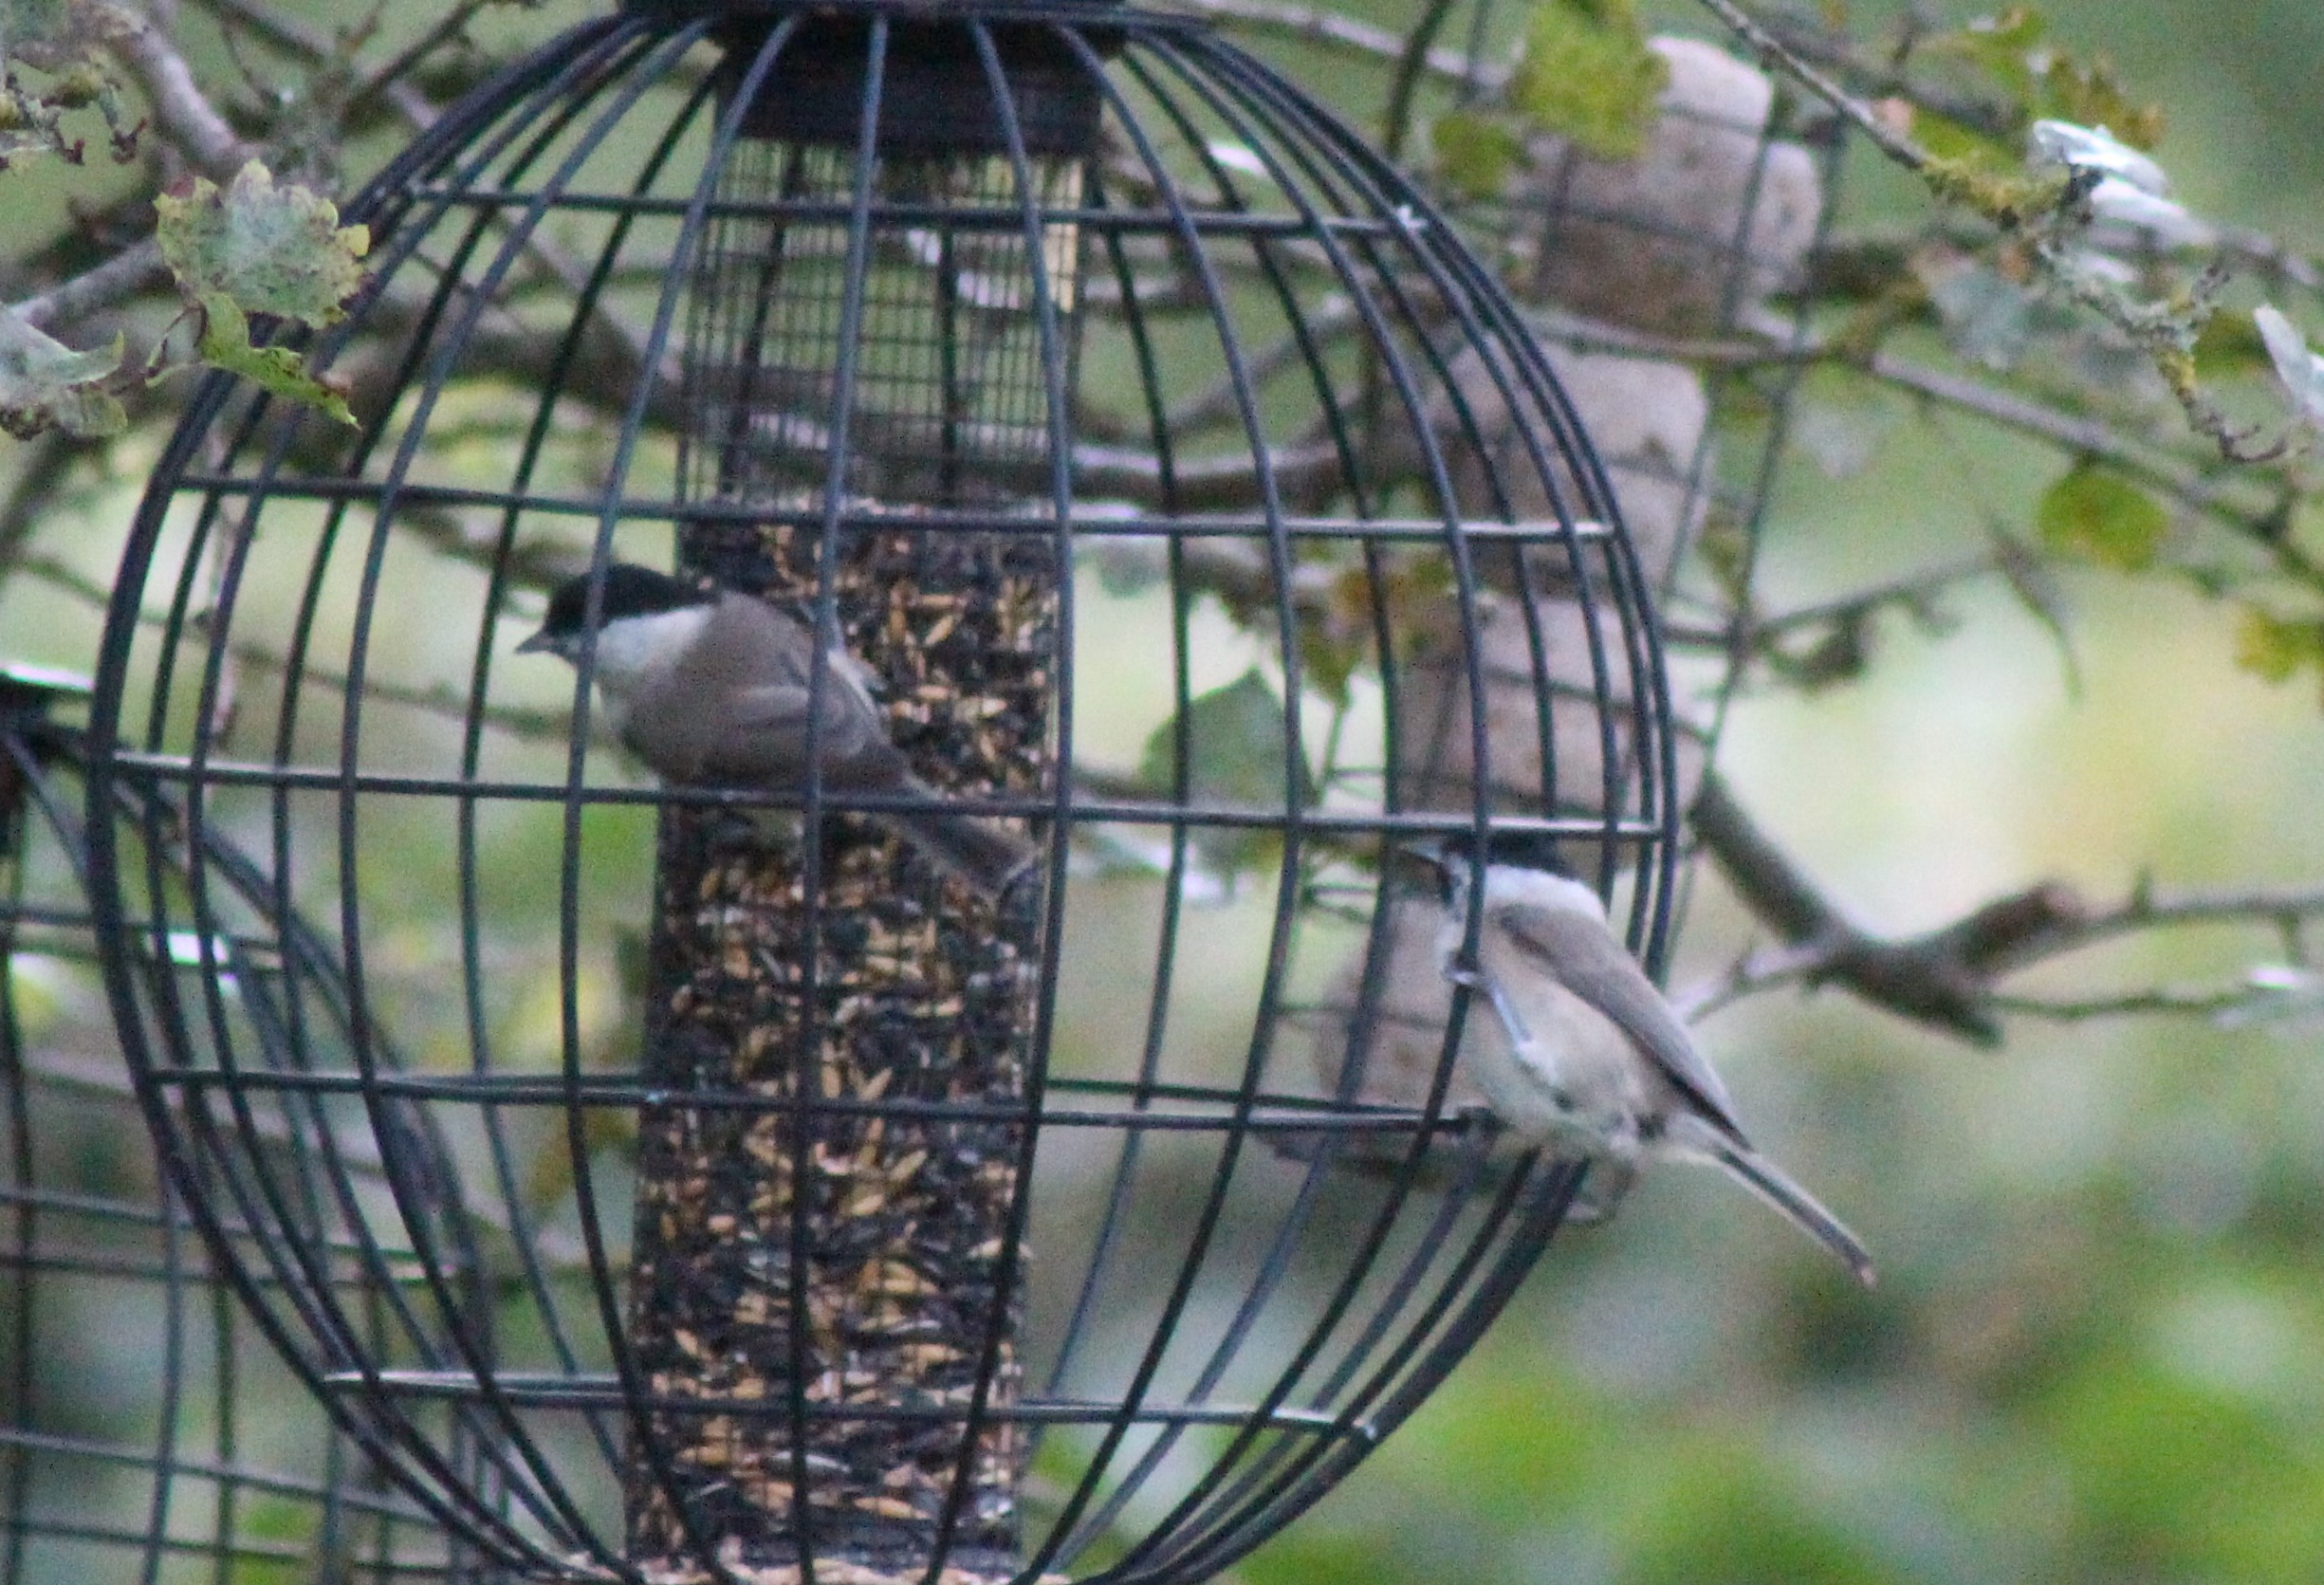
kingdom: Animalia
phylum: Chordata
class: Aves
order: Passeriformes
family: Paridae
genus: Poecile
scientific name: Poecile palustris
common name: Sumpmejse
